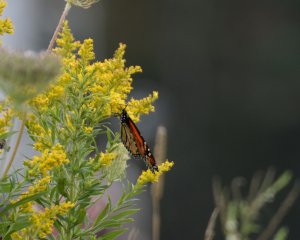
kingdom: Animalia
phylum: Arthropoda
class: Insecta
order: Lepidoptera
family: Nymphalidae
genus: Danaus
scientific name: Danaus plexippus
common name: Monarch
